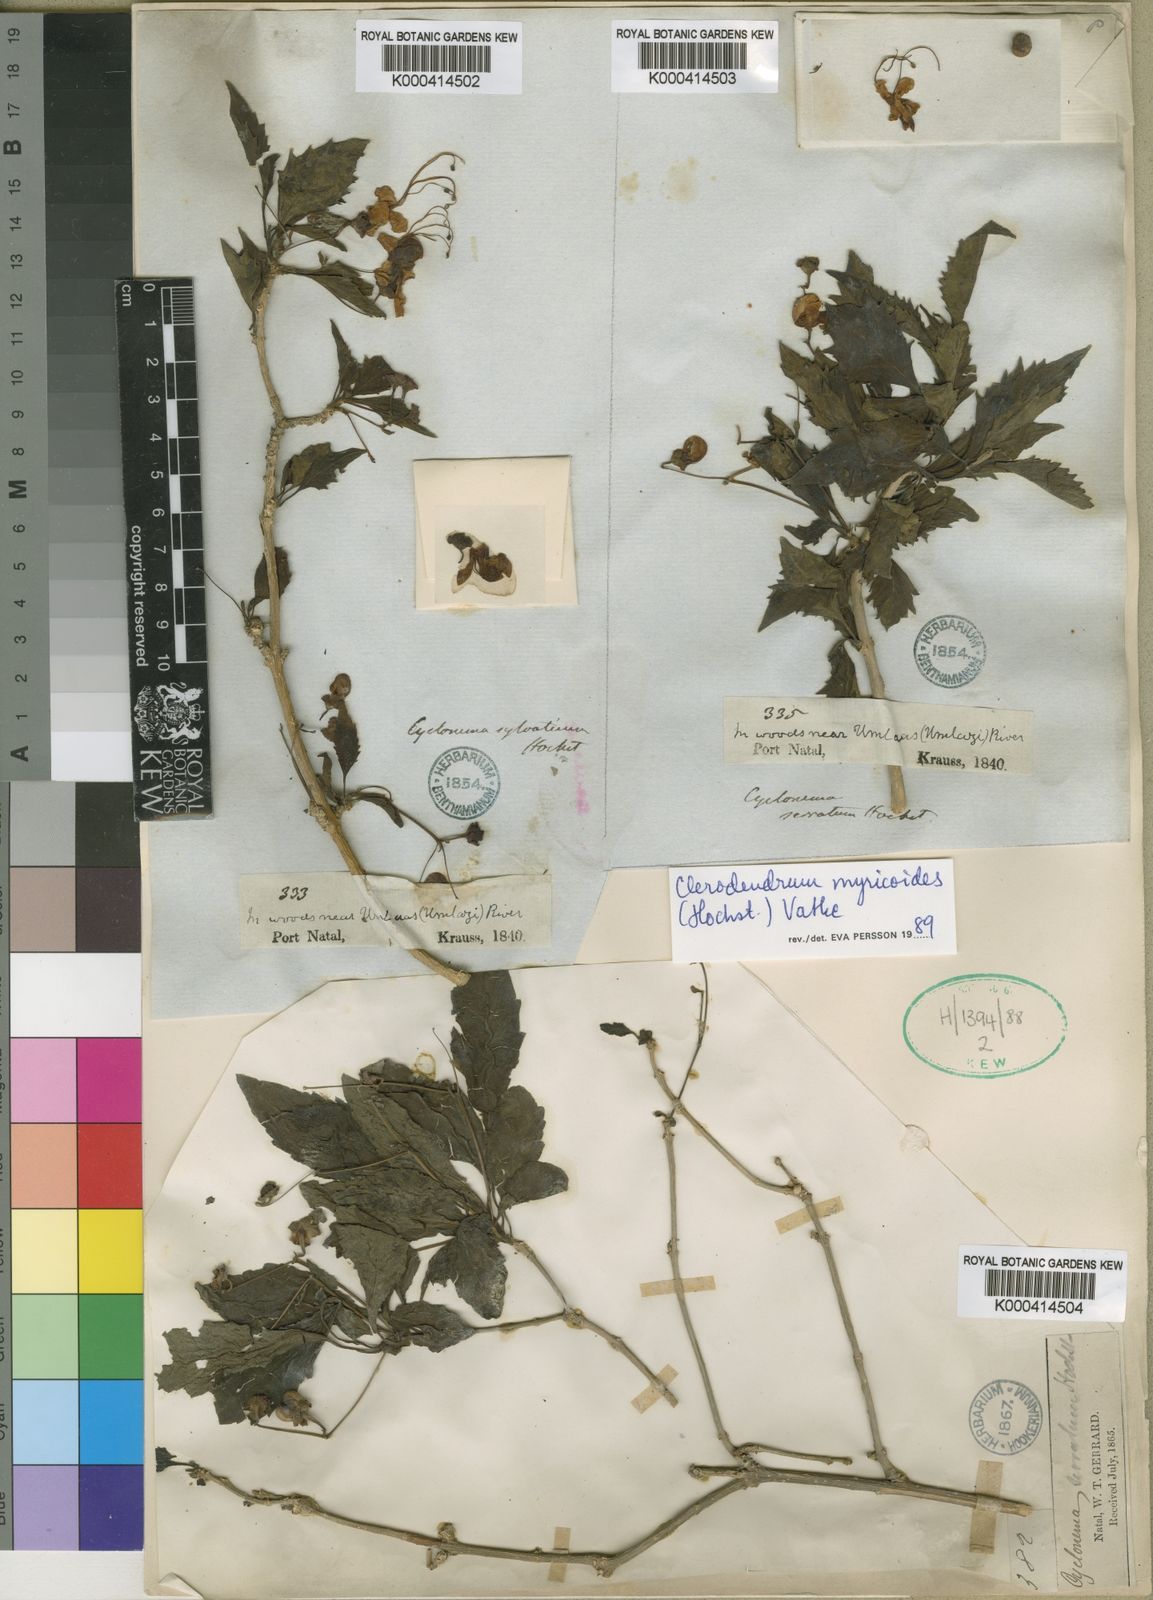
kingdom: Plantae
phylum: Tracheophyta
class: Magnoliopsida
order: Lamiales
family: Lamiaceae
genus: Rotheca
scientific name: Rotheca myricoides
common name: Cats-whiskers
